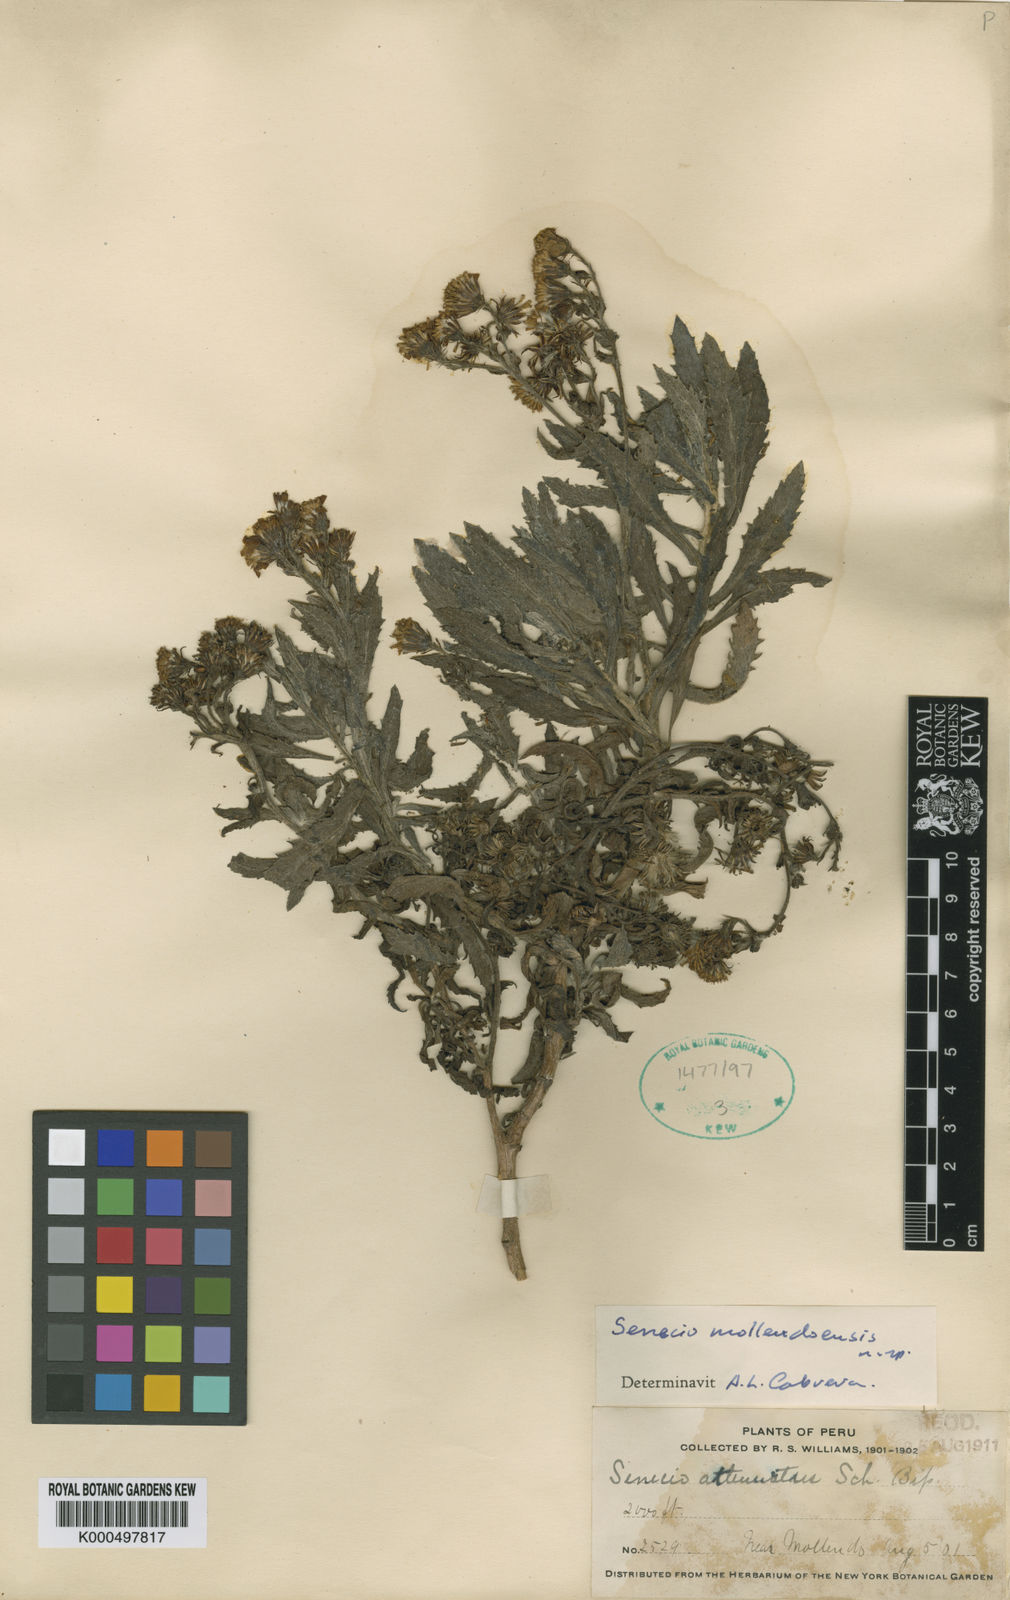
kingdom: Plantae
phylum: Tracheophyta
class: Magnoliopsida
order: Asterales
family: Asteraceae
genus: Lomanthus
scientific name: Lomanthus mollendoensis
